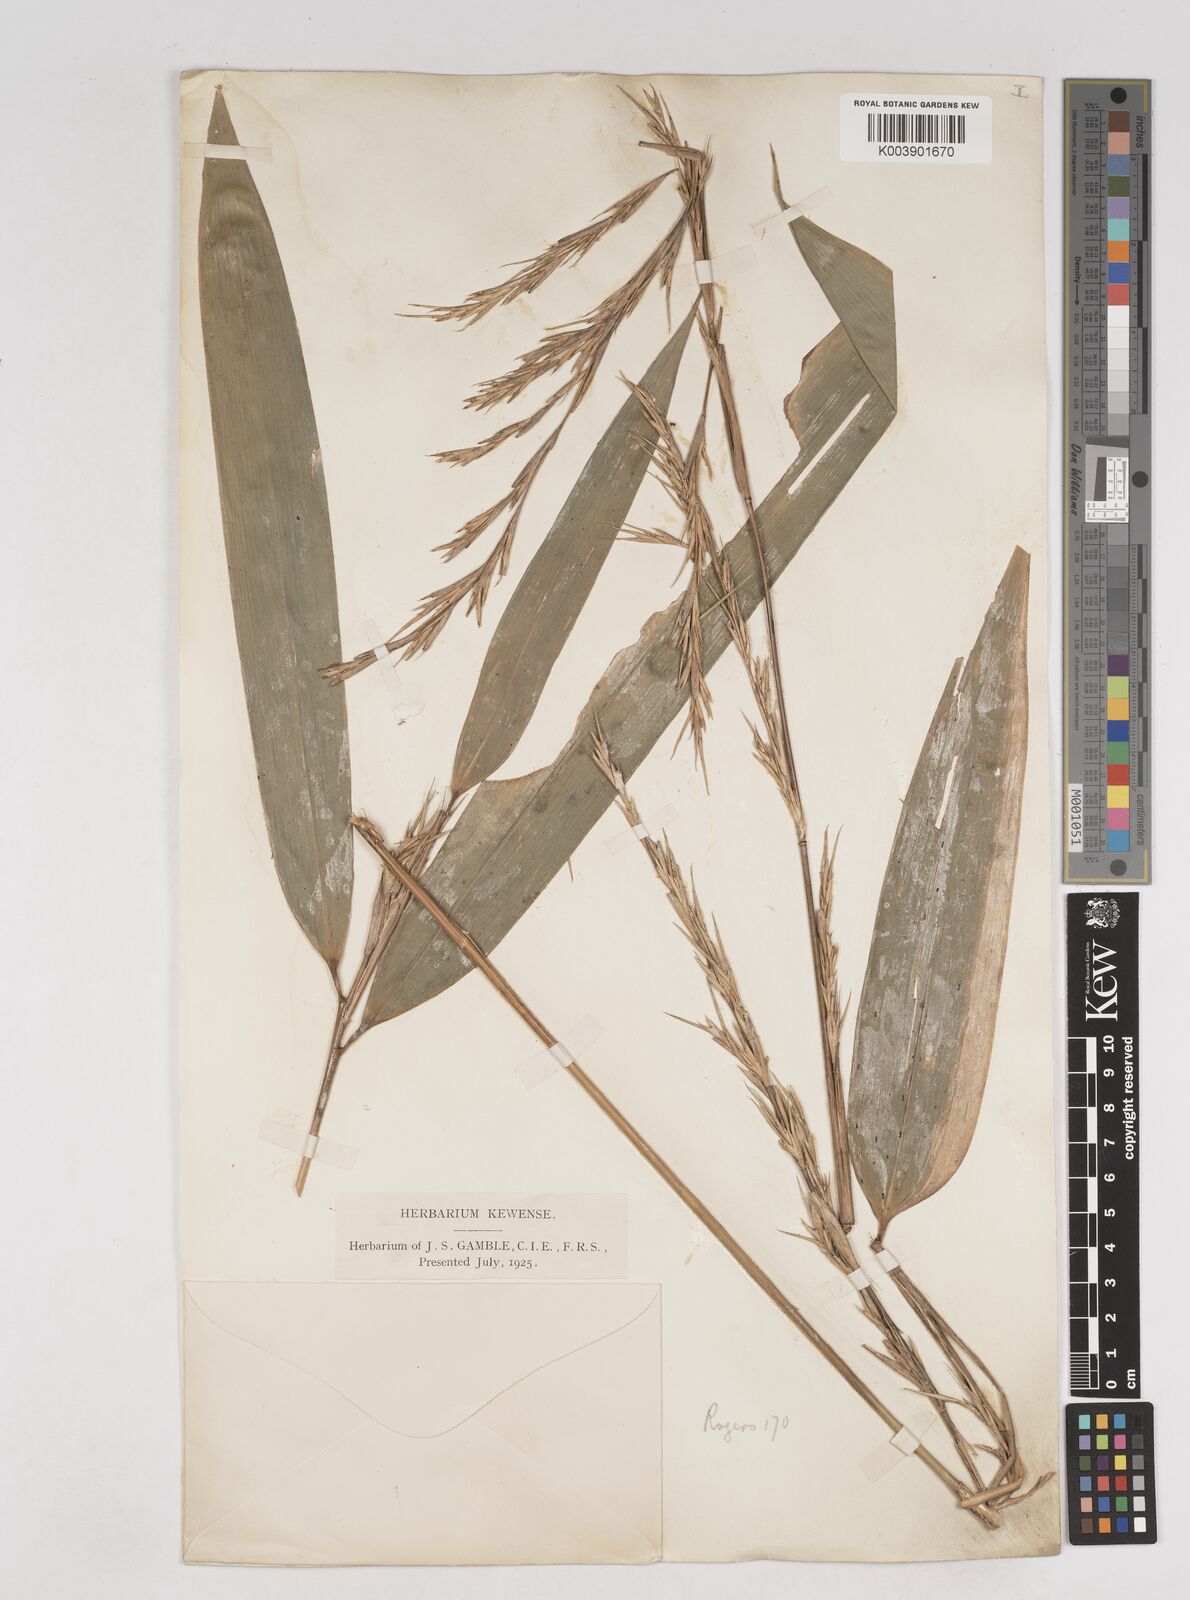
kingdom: Plantae
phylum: Tracheophyta
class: Liliopsida
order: Poales
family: Poaceae
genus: Schizostachyum
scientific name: Schizostachyum
